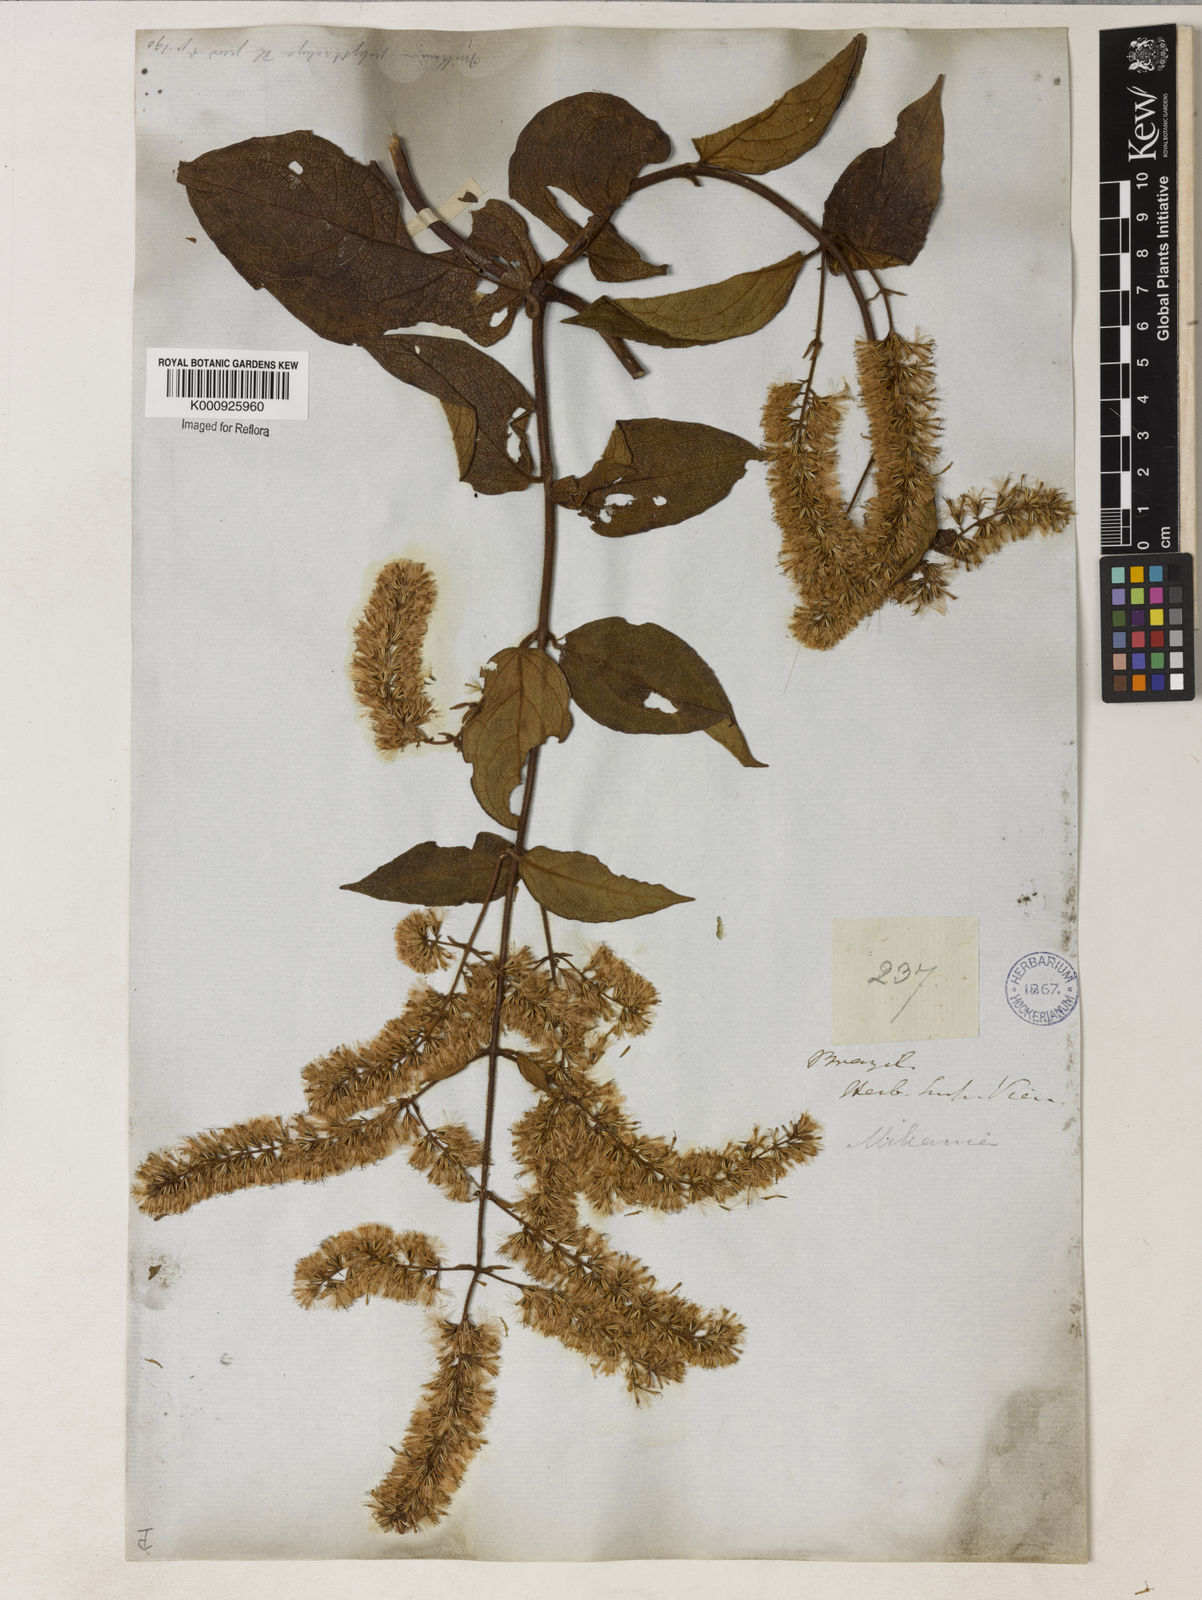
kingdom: Plantae
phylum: Tracheophyta
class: Magnoliopsida
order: Asterales
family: Asteraceae
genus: Mikania
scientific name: Mikania psilostachya
